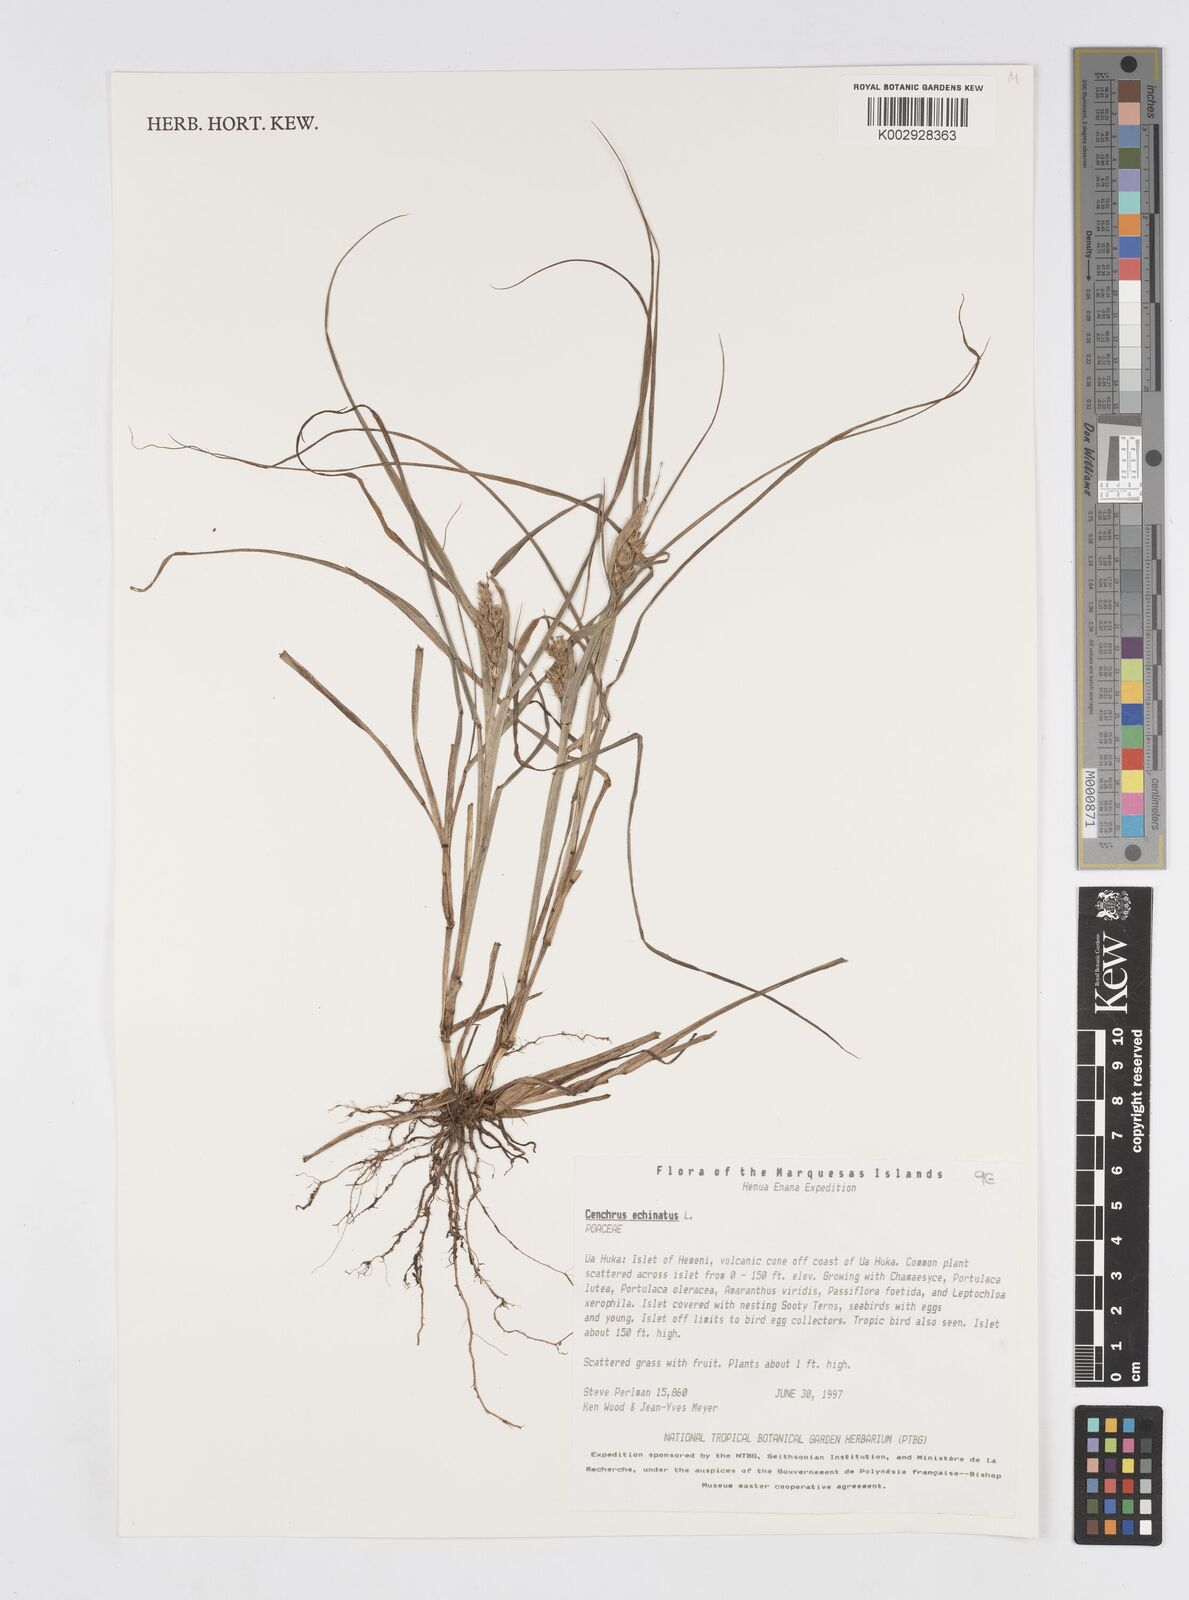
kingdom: Plantae
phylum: Tracheophyta
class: Liliopsida
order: Poales
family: Poaceae
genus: Cenchrus
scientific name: Cenchrus echinatus
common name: Southern sandbur
